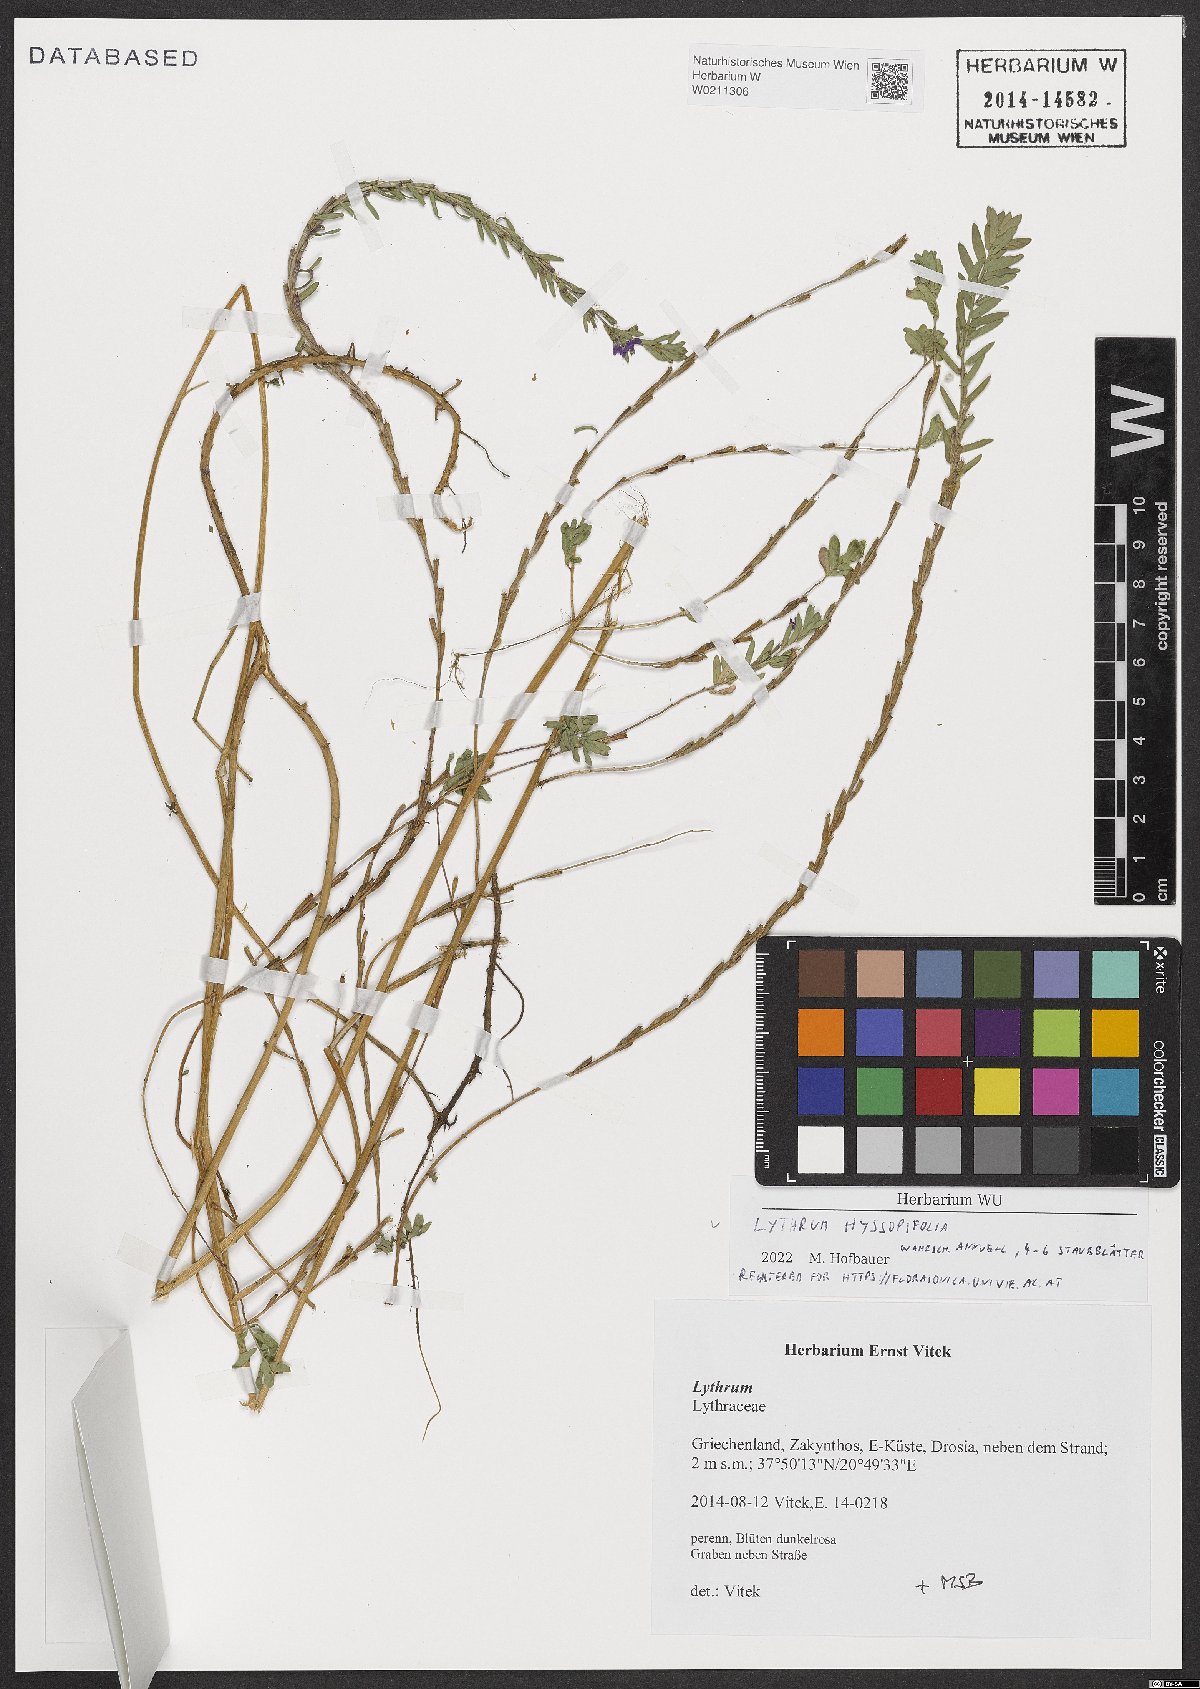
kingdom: Plantae
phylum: Tracheophyta
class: Magnoliopsida
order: Myrtales
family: Lythraceae
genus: Lythrum
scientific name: Lythrum hyssopifolia
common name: Grass-poly
